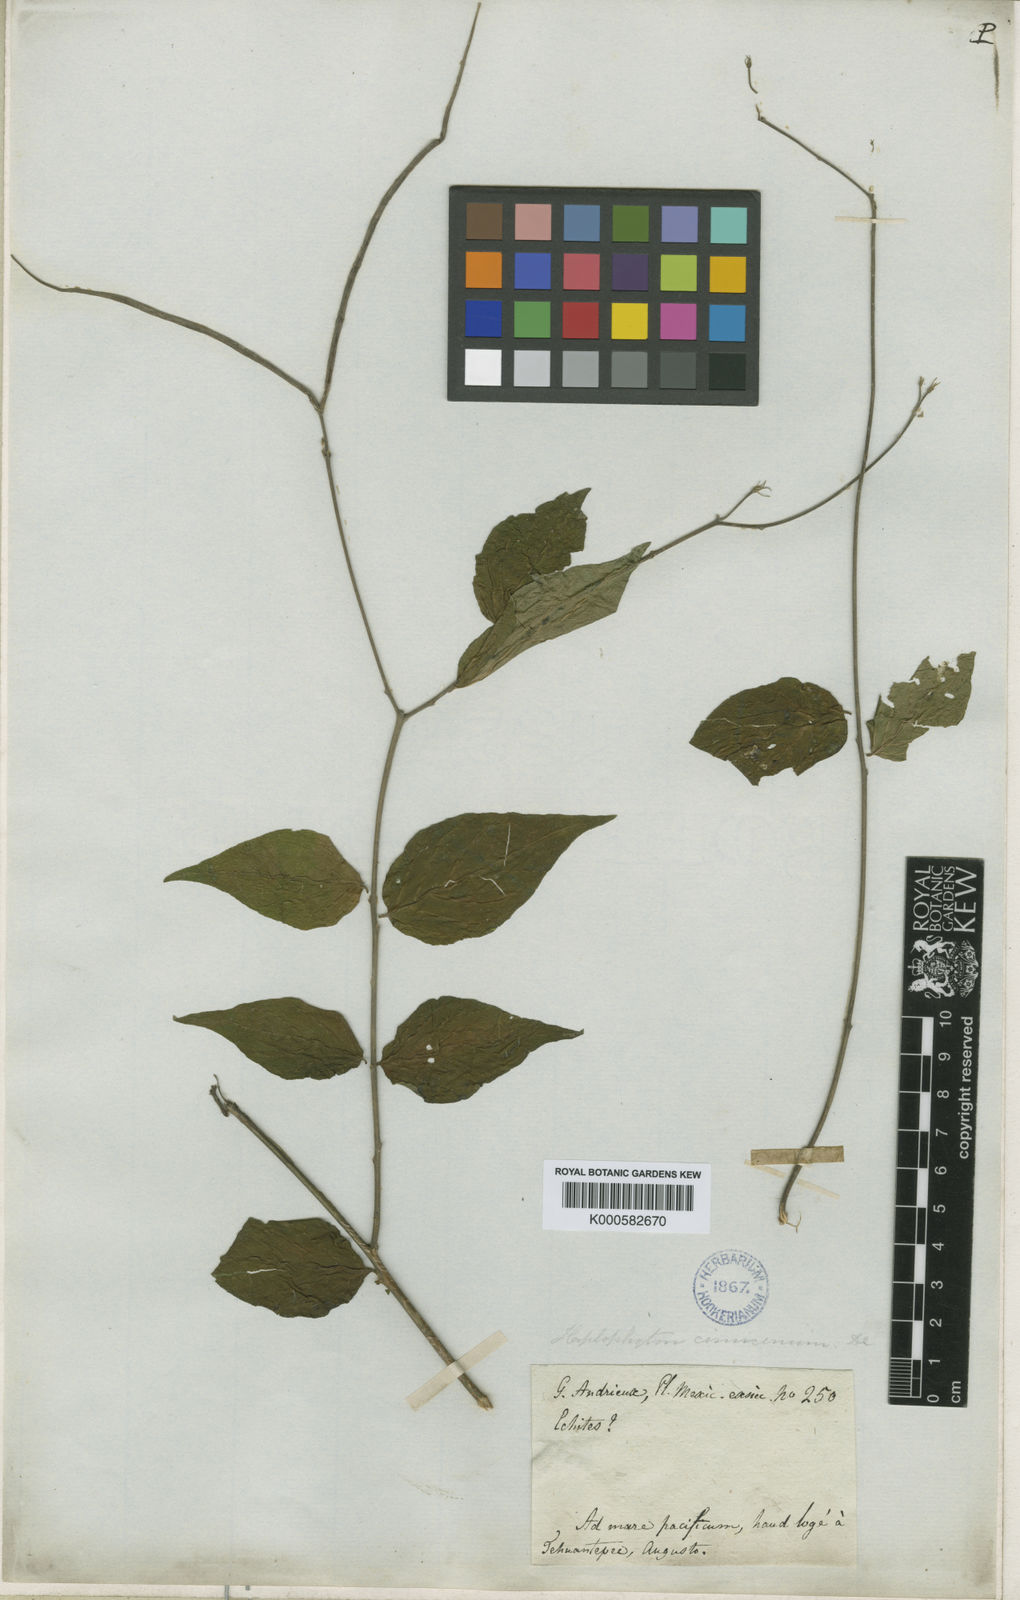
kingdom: Plantae
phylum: Tracheophyta
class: Magnoliopsida
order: Gentianales
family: Apocynaceae
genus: Haplophyton
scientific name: Haplophyton cimicidum
